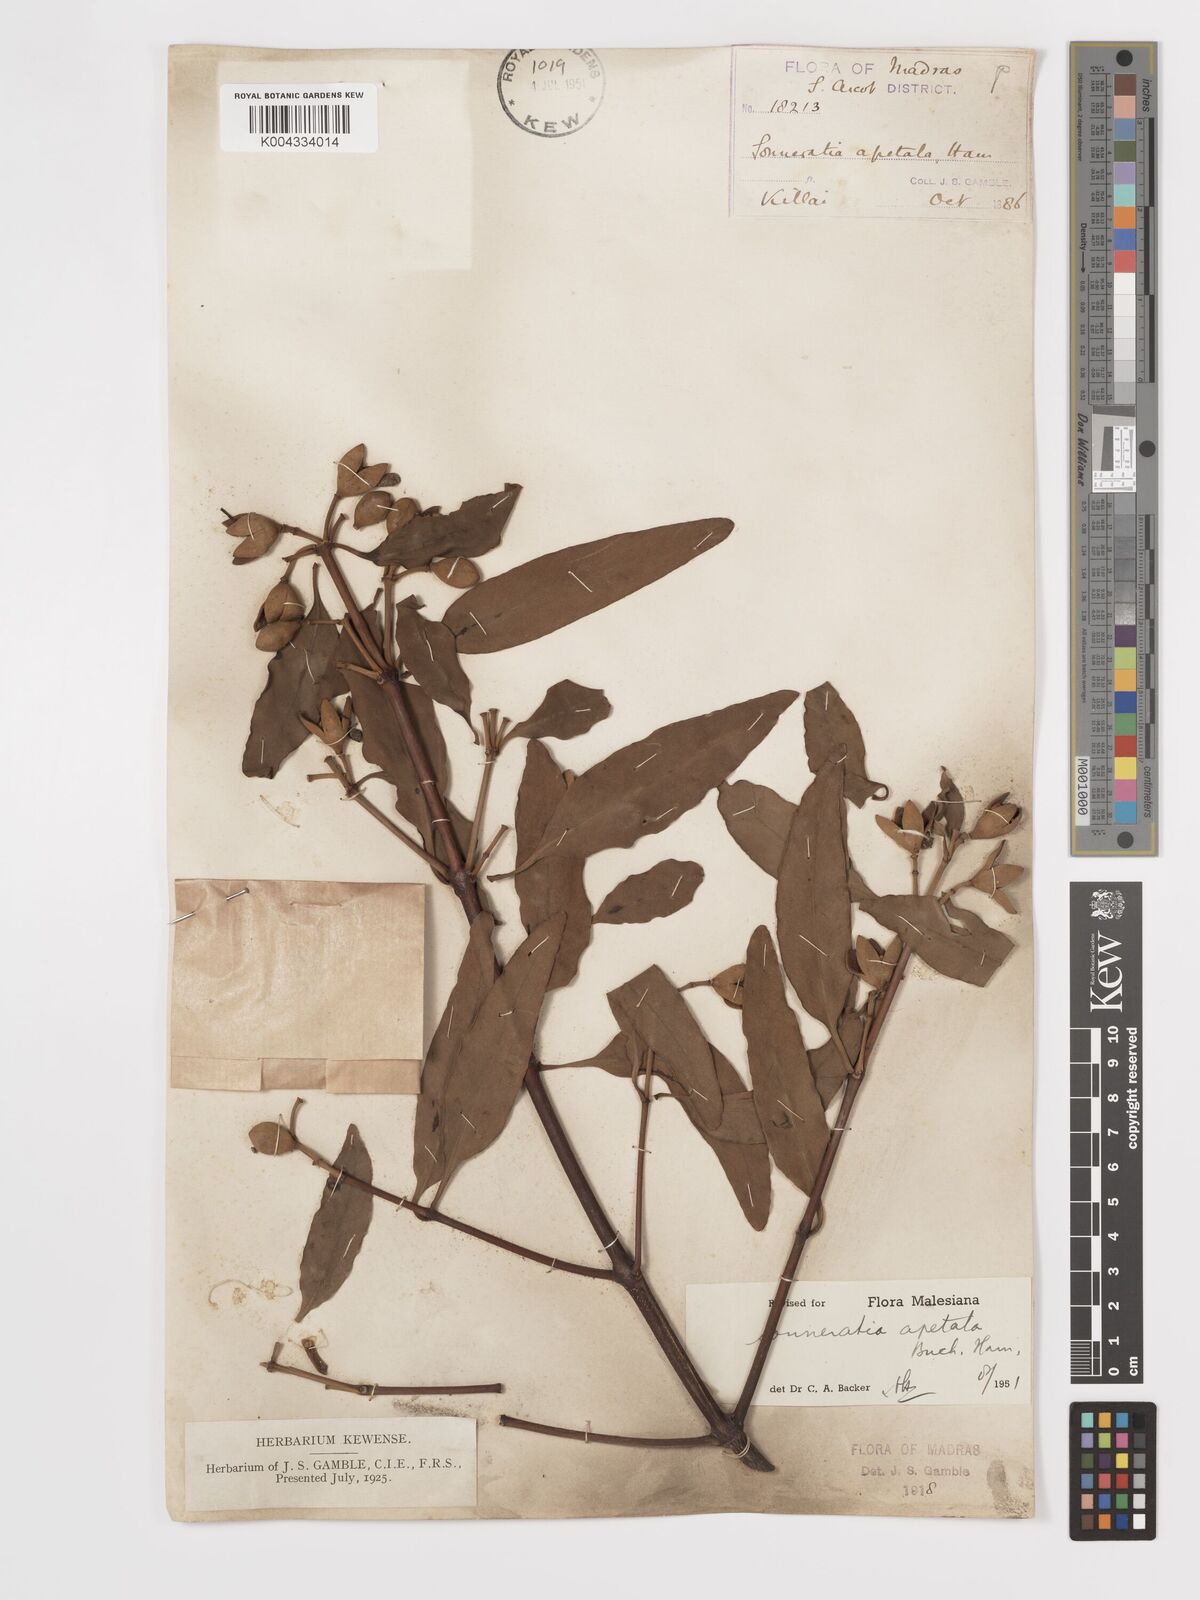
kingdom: Plantae
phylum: Tracheophyta
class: Magnoliopsida
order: Myrtales
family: Lythraceae
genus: Sonneratia
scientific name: Sonneratia apetala
